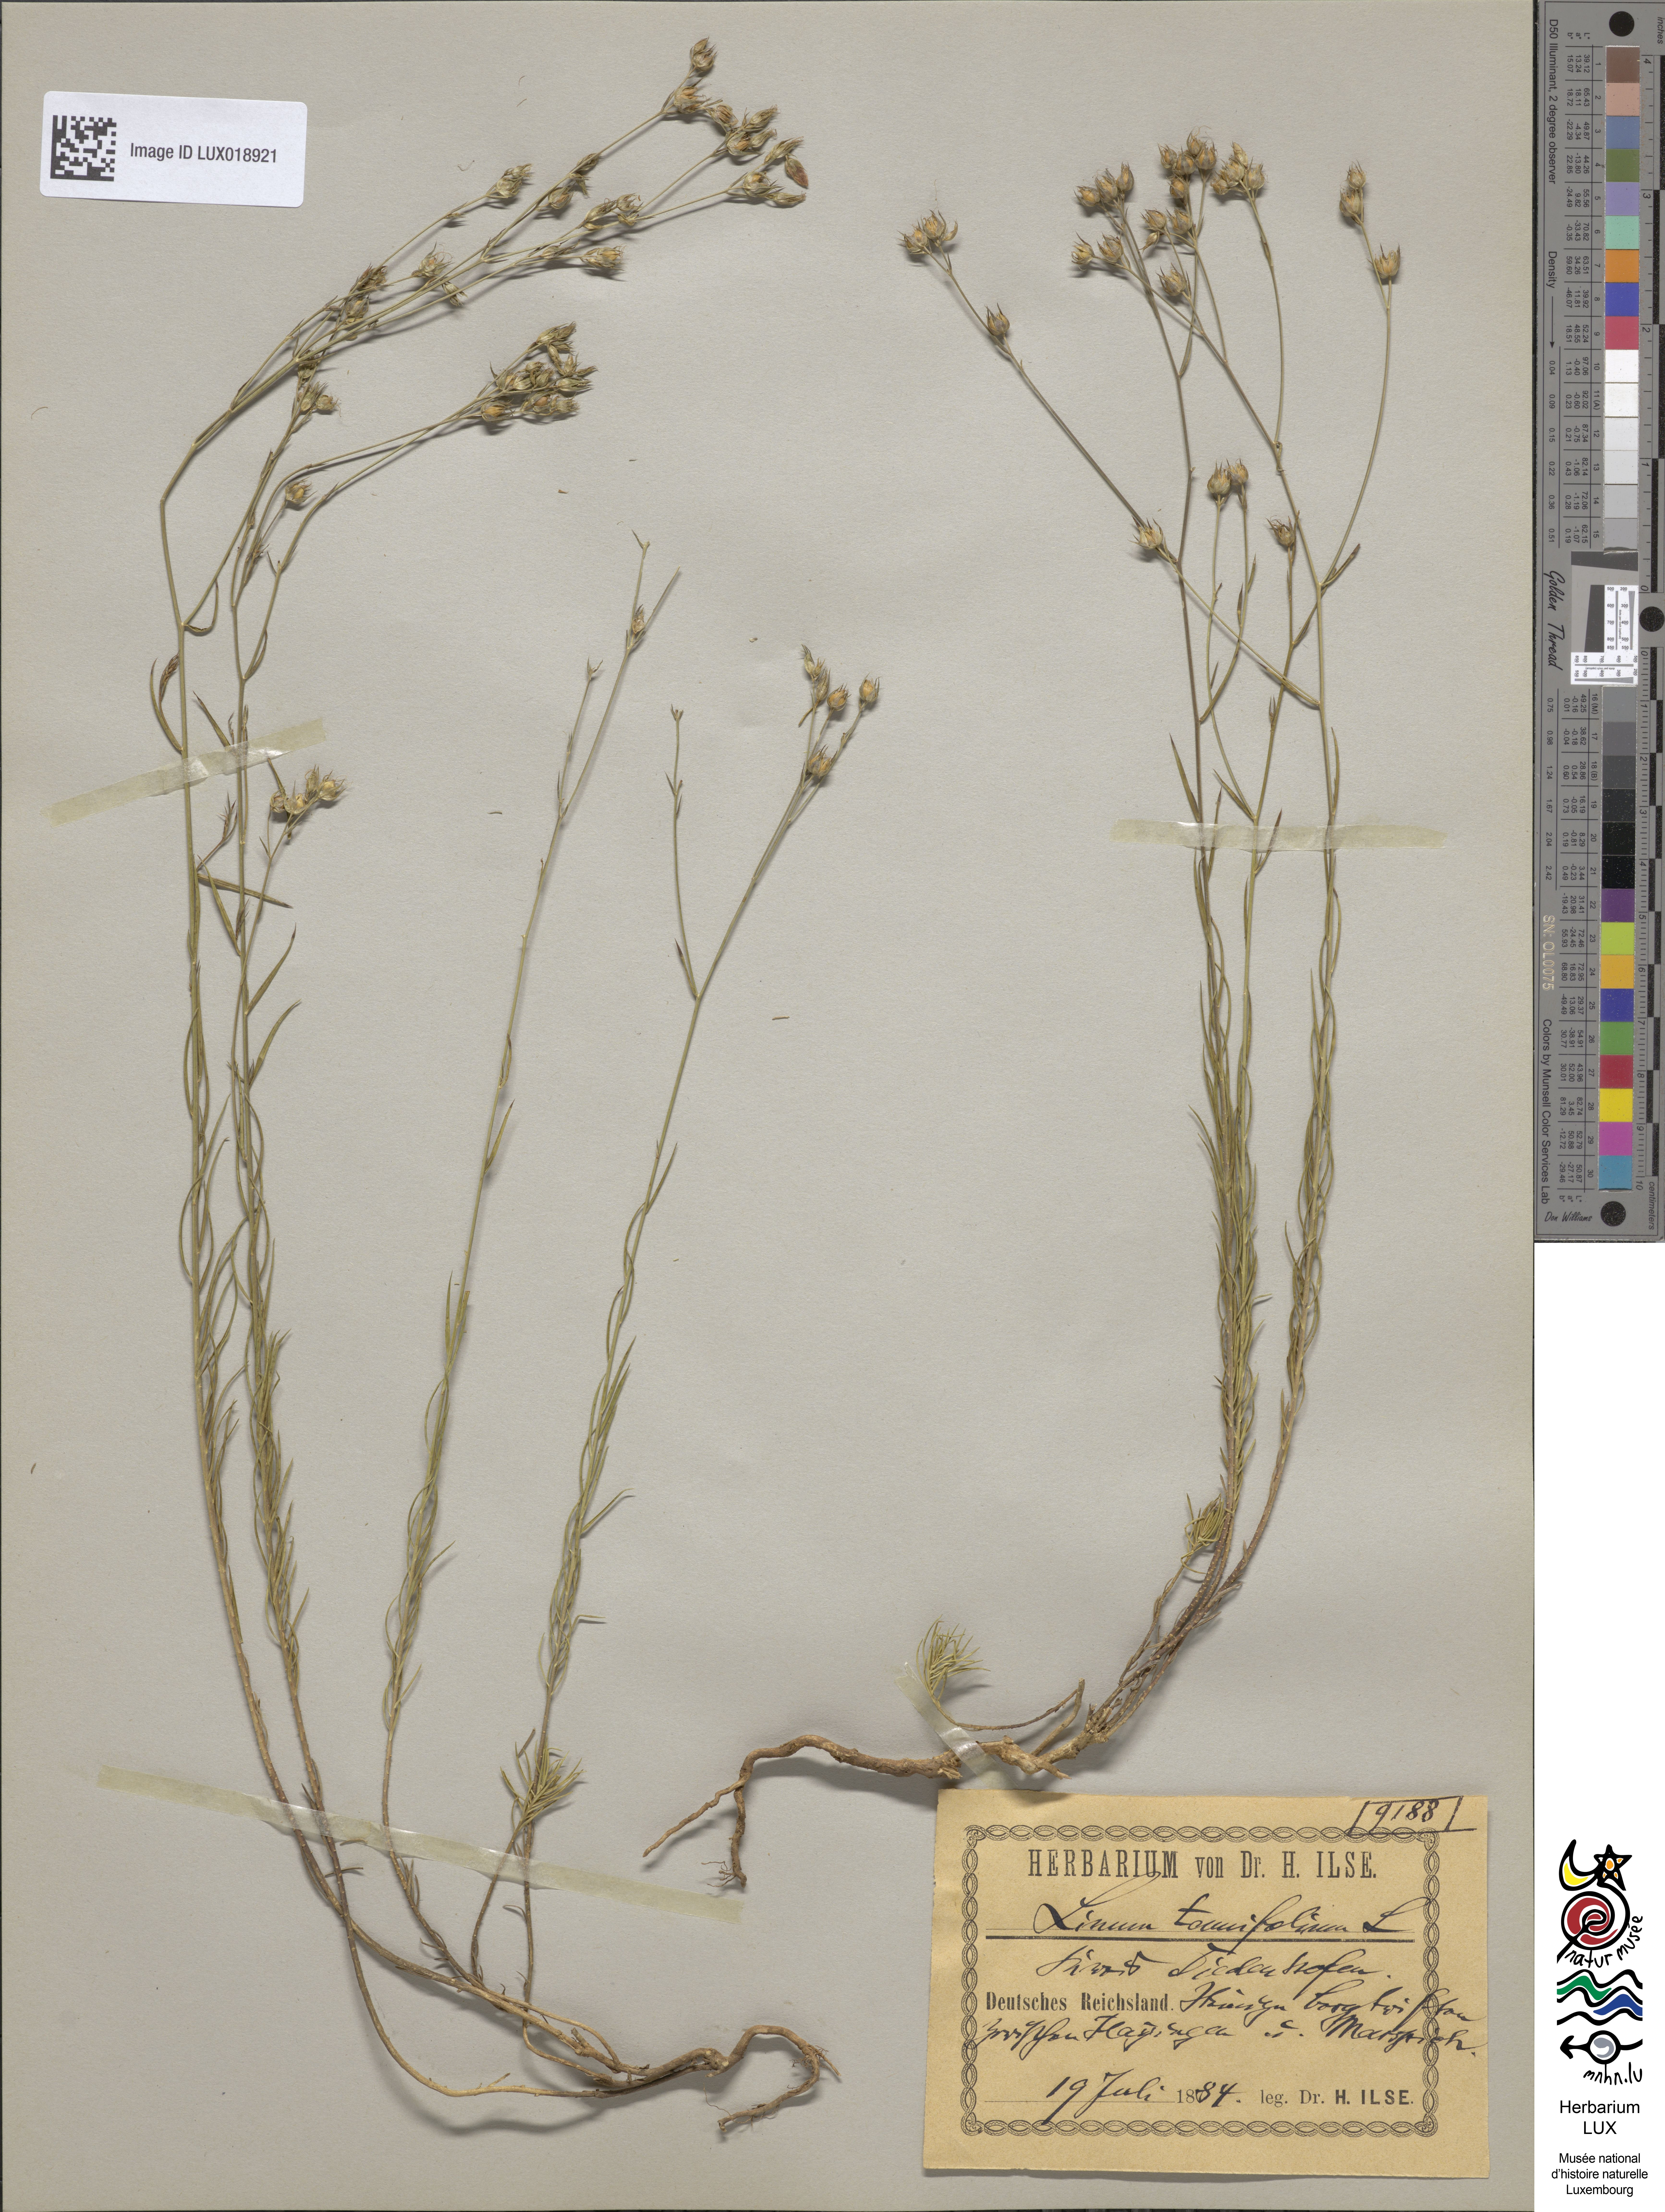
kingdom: Plantae
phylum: Tracheophyta
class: Magnoliopsida
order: Malpighiales
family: Linaceae
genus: Linum
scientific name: Linum tenuifolium
